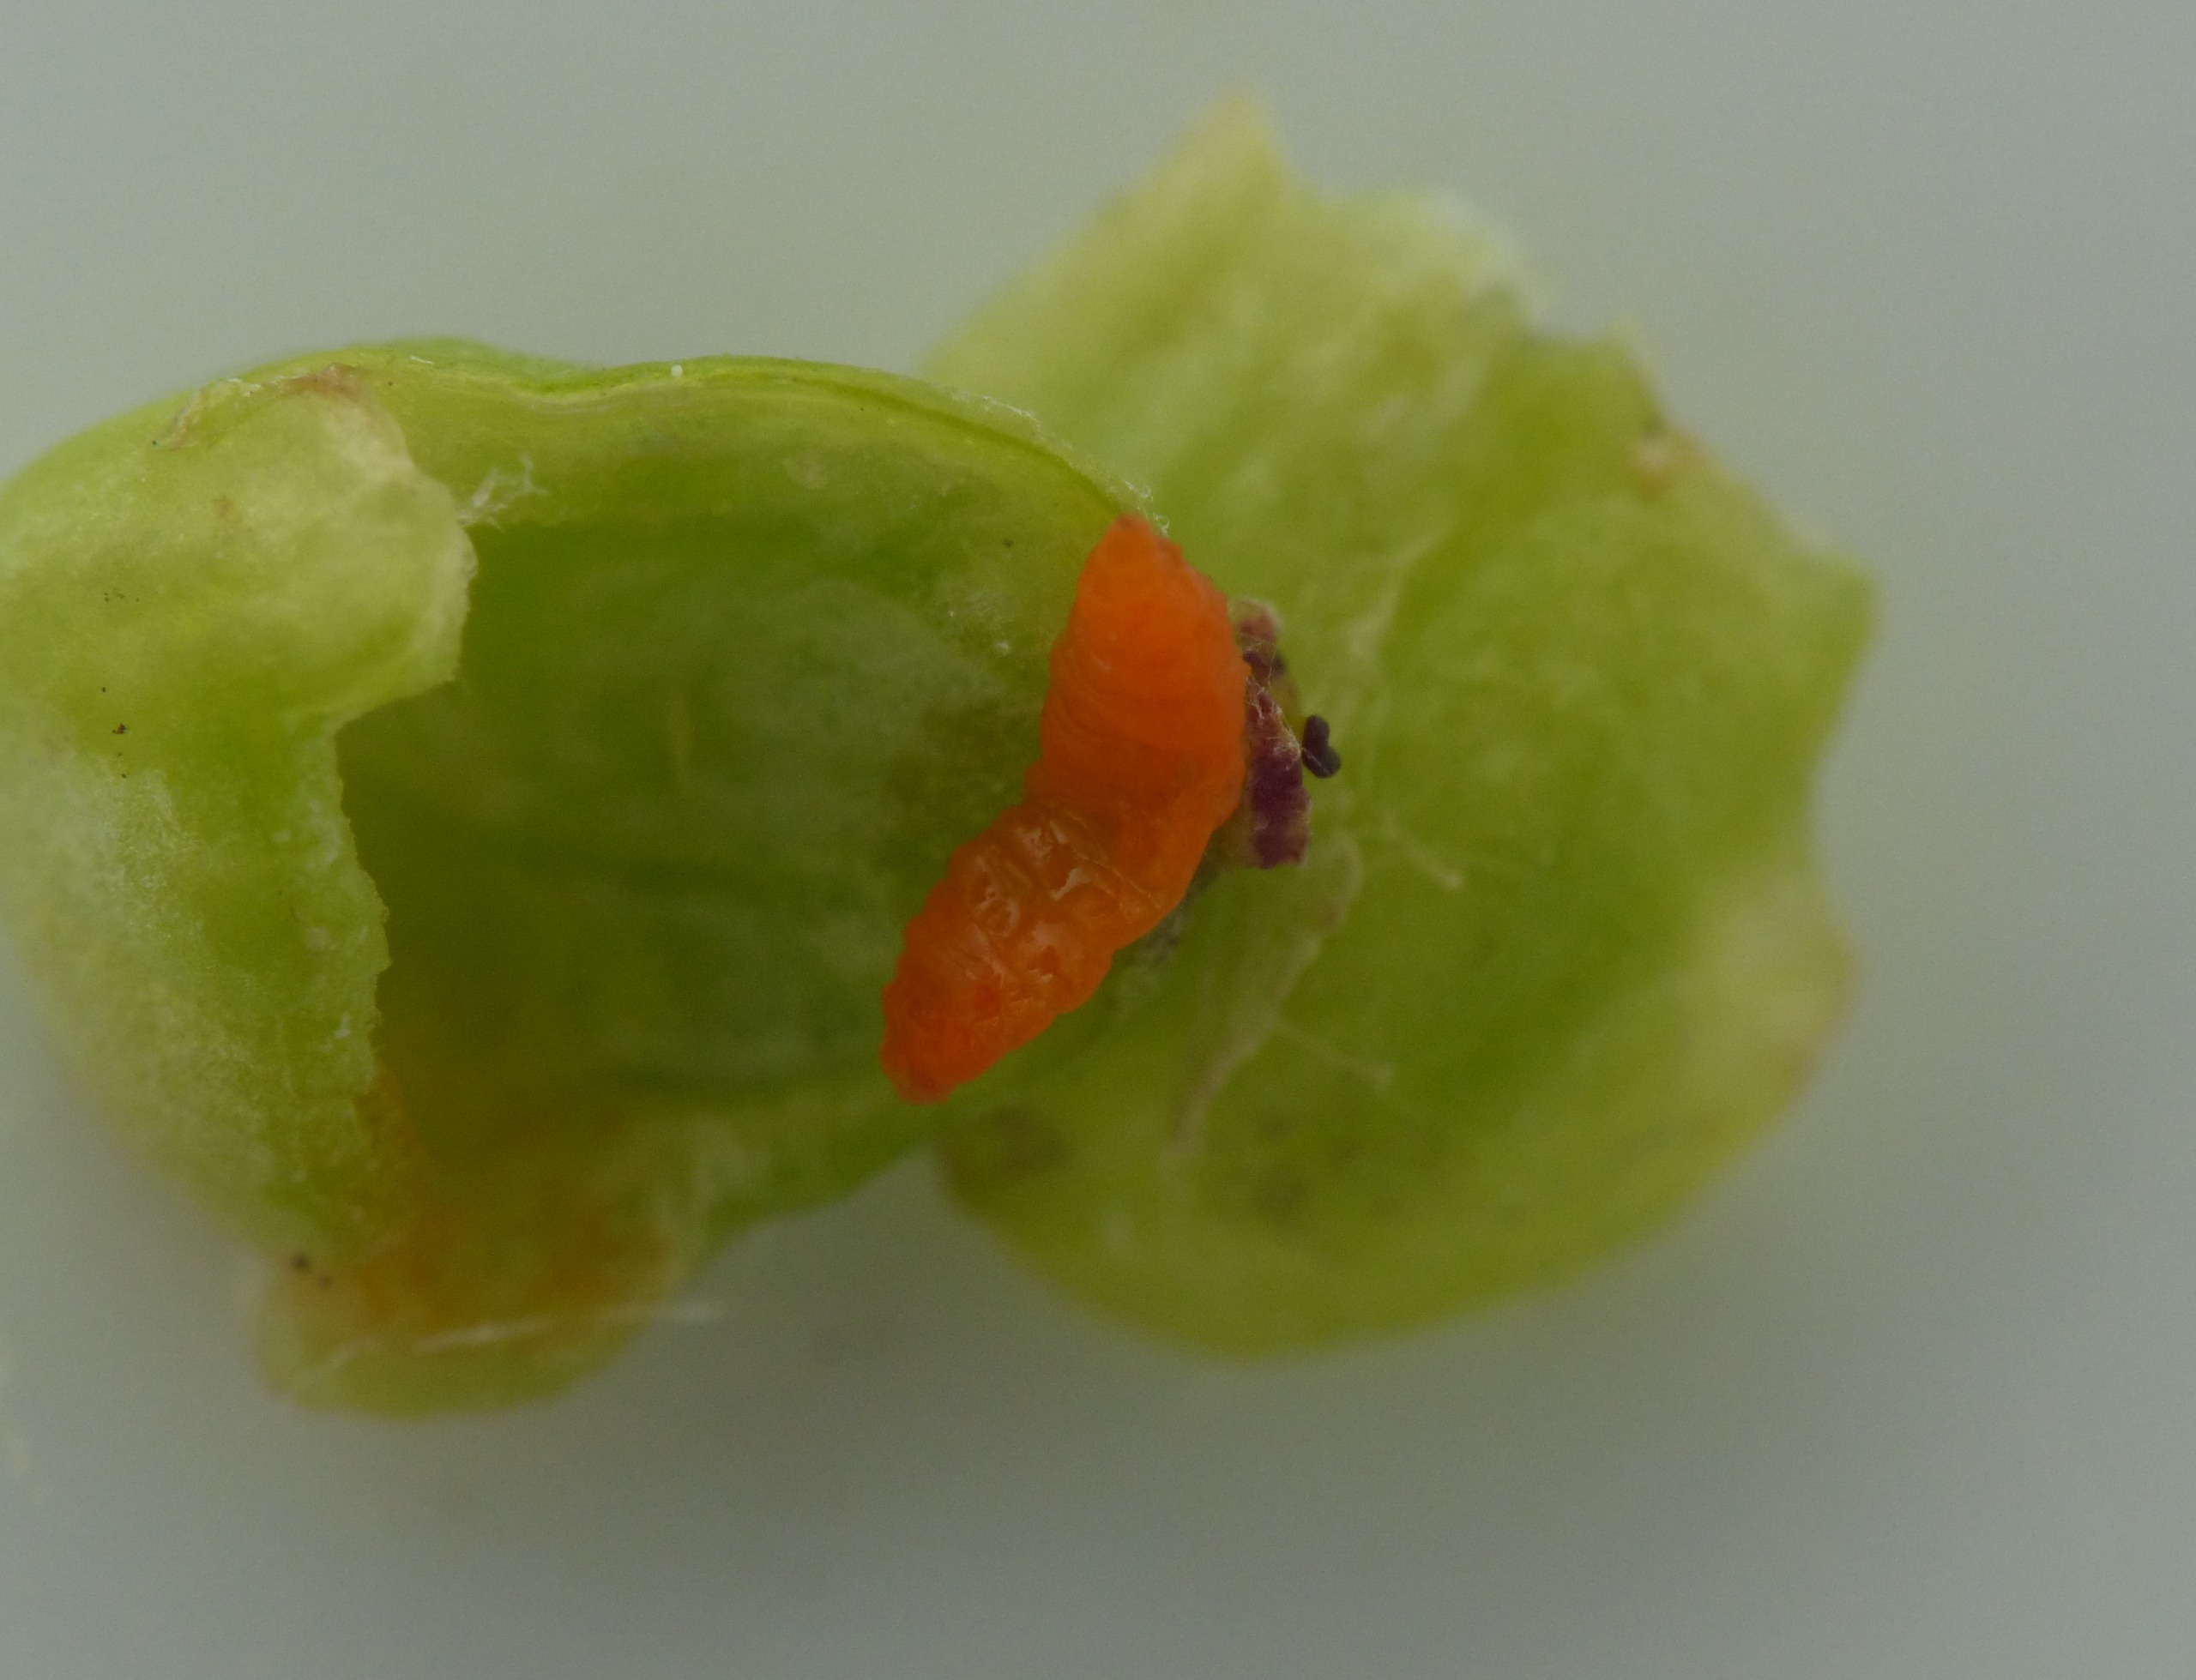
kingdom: Animalia
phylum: Arthropoda
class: Insecta
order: Diptera
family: Cecidomyiidae
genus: Kiefferia
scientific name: Kiefferia pericarpiicola
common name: Gulerodsgalmyg
